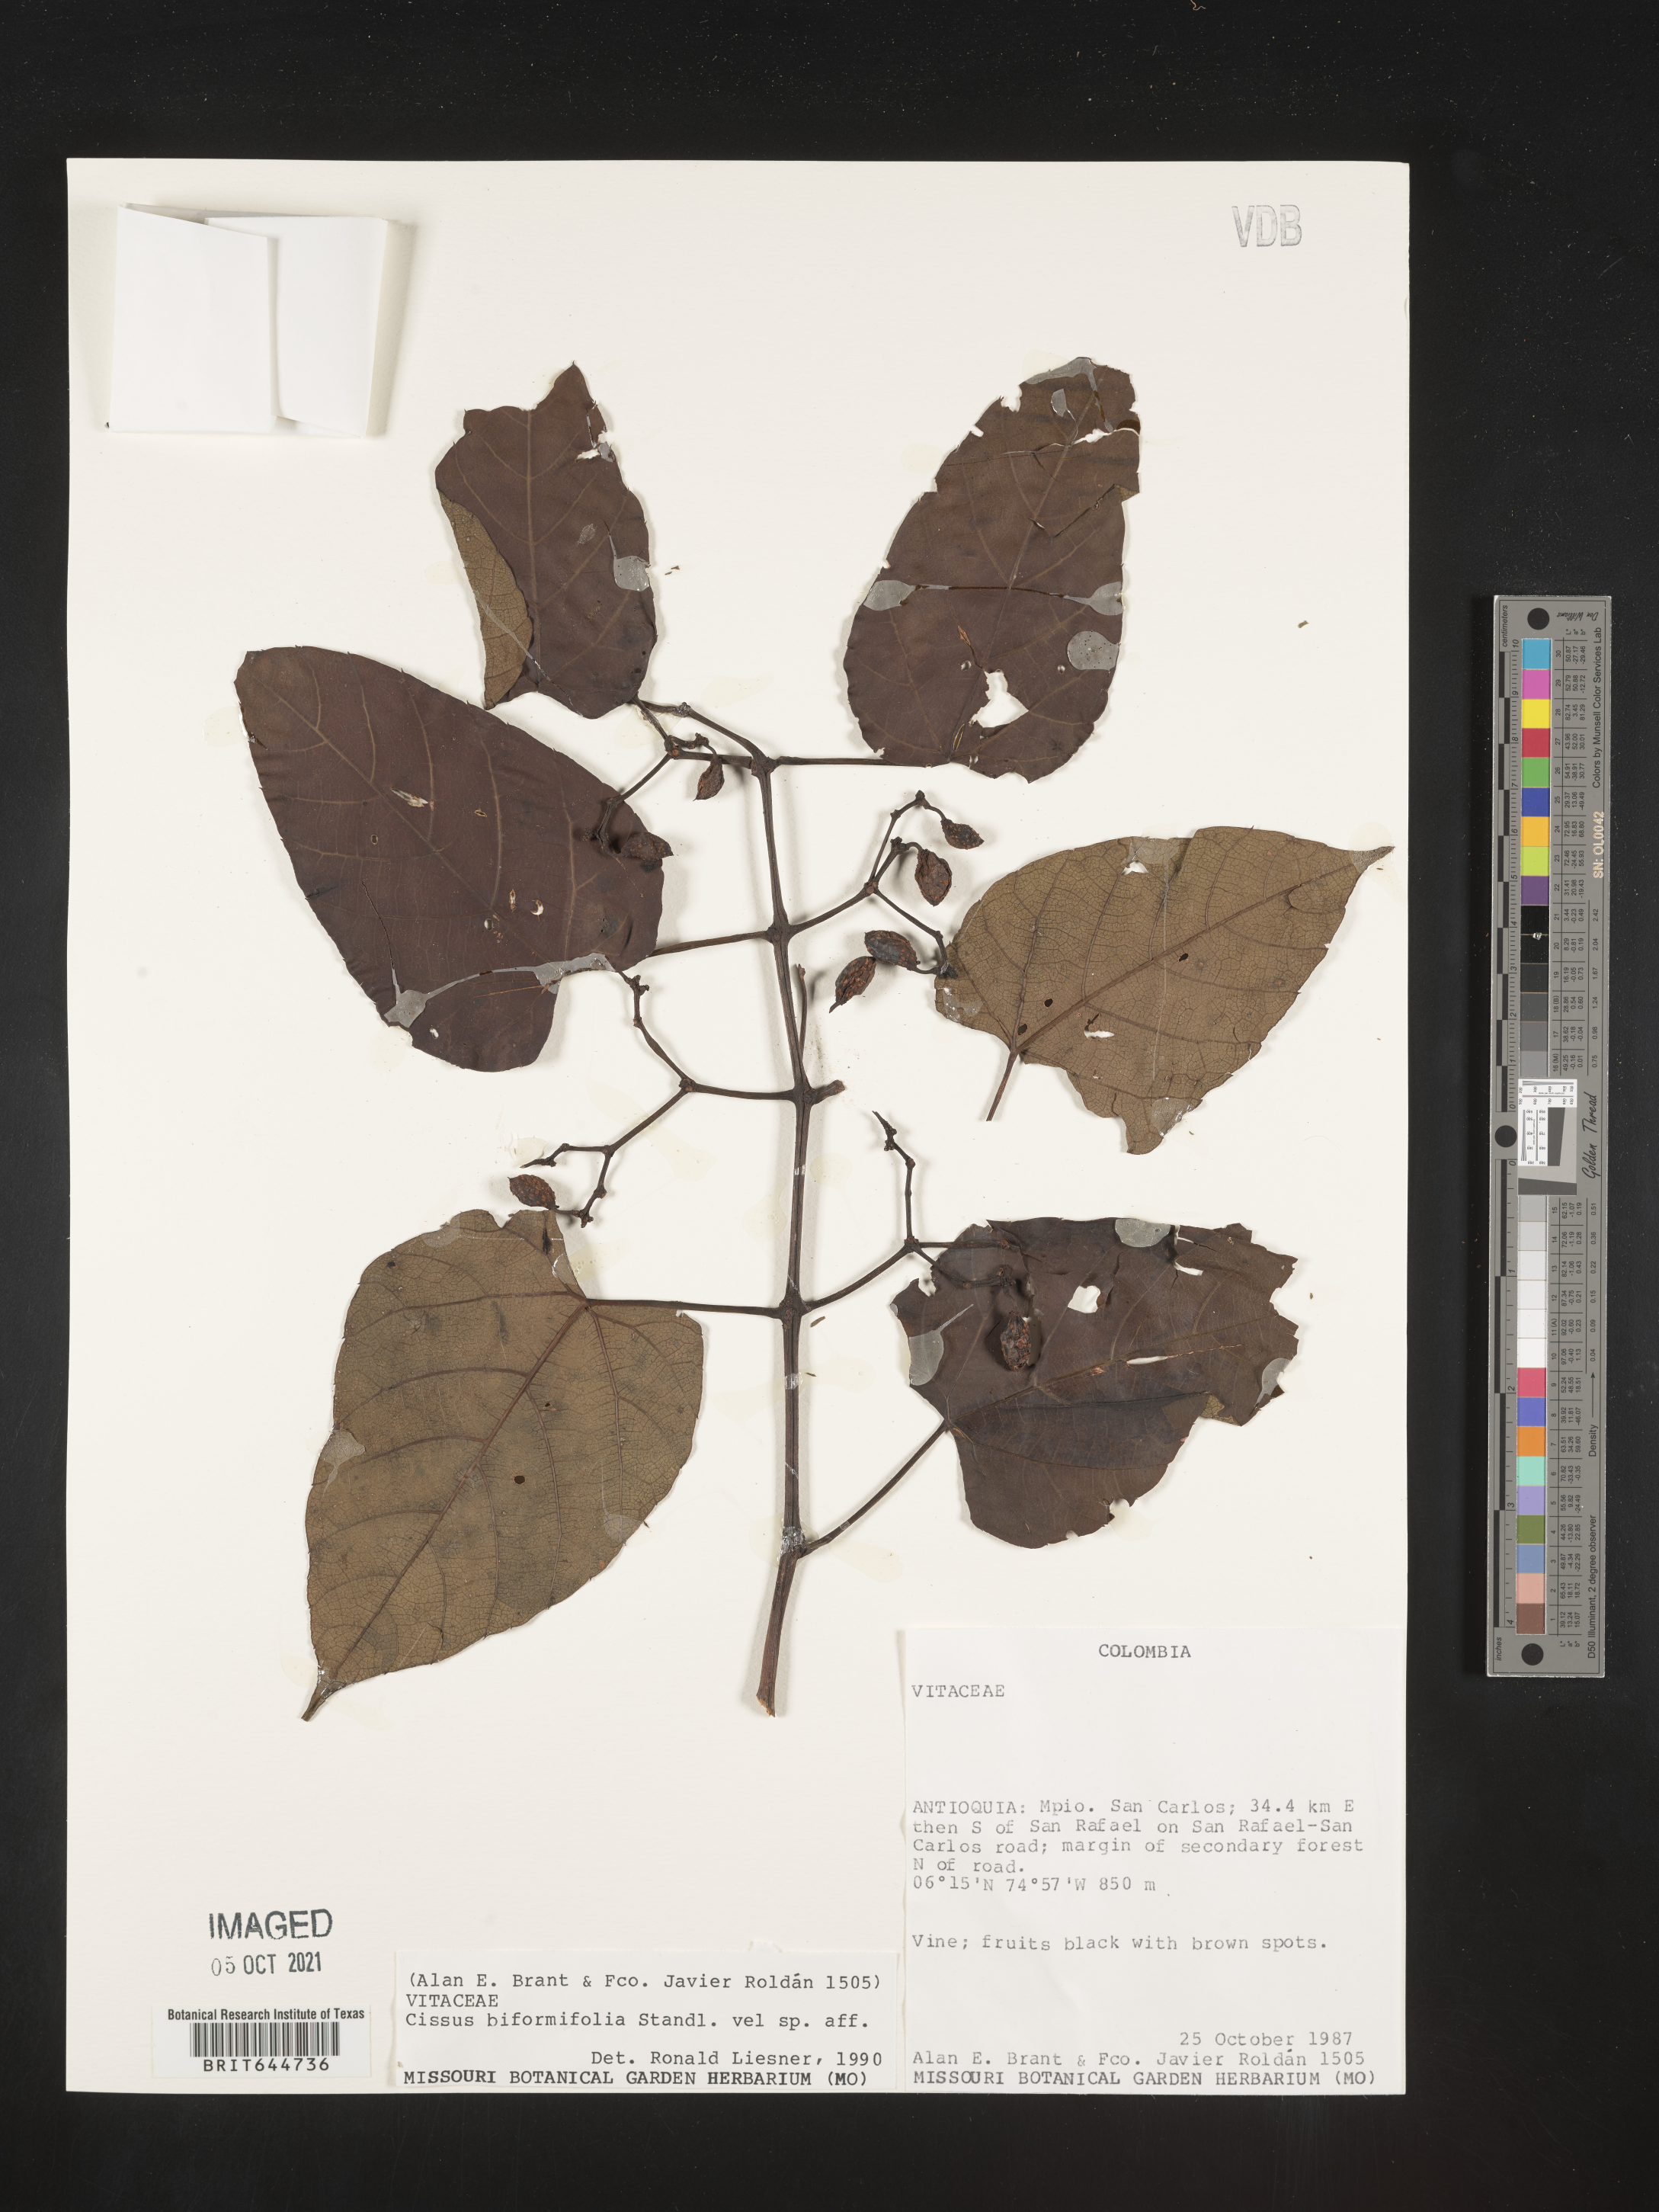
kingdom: Plantae
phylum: Tracheophyta
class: Magnoliopsida
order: Vitales
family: Vitaceae
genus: Cissus
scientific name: Cissus
